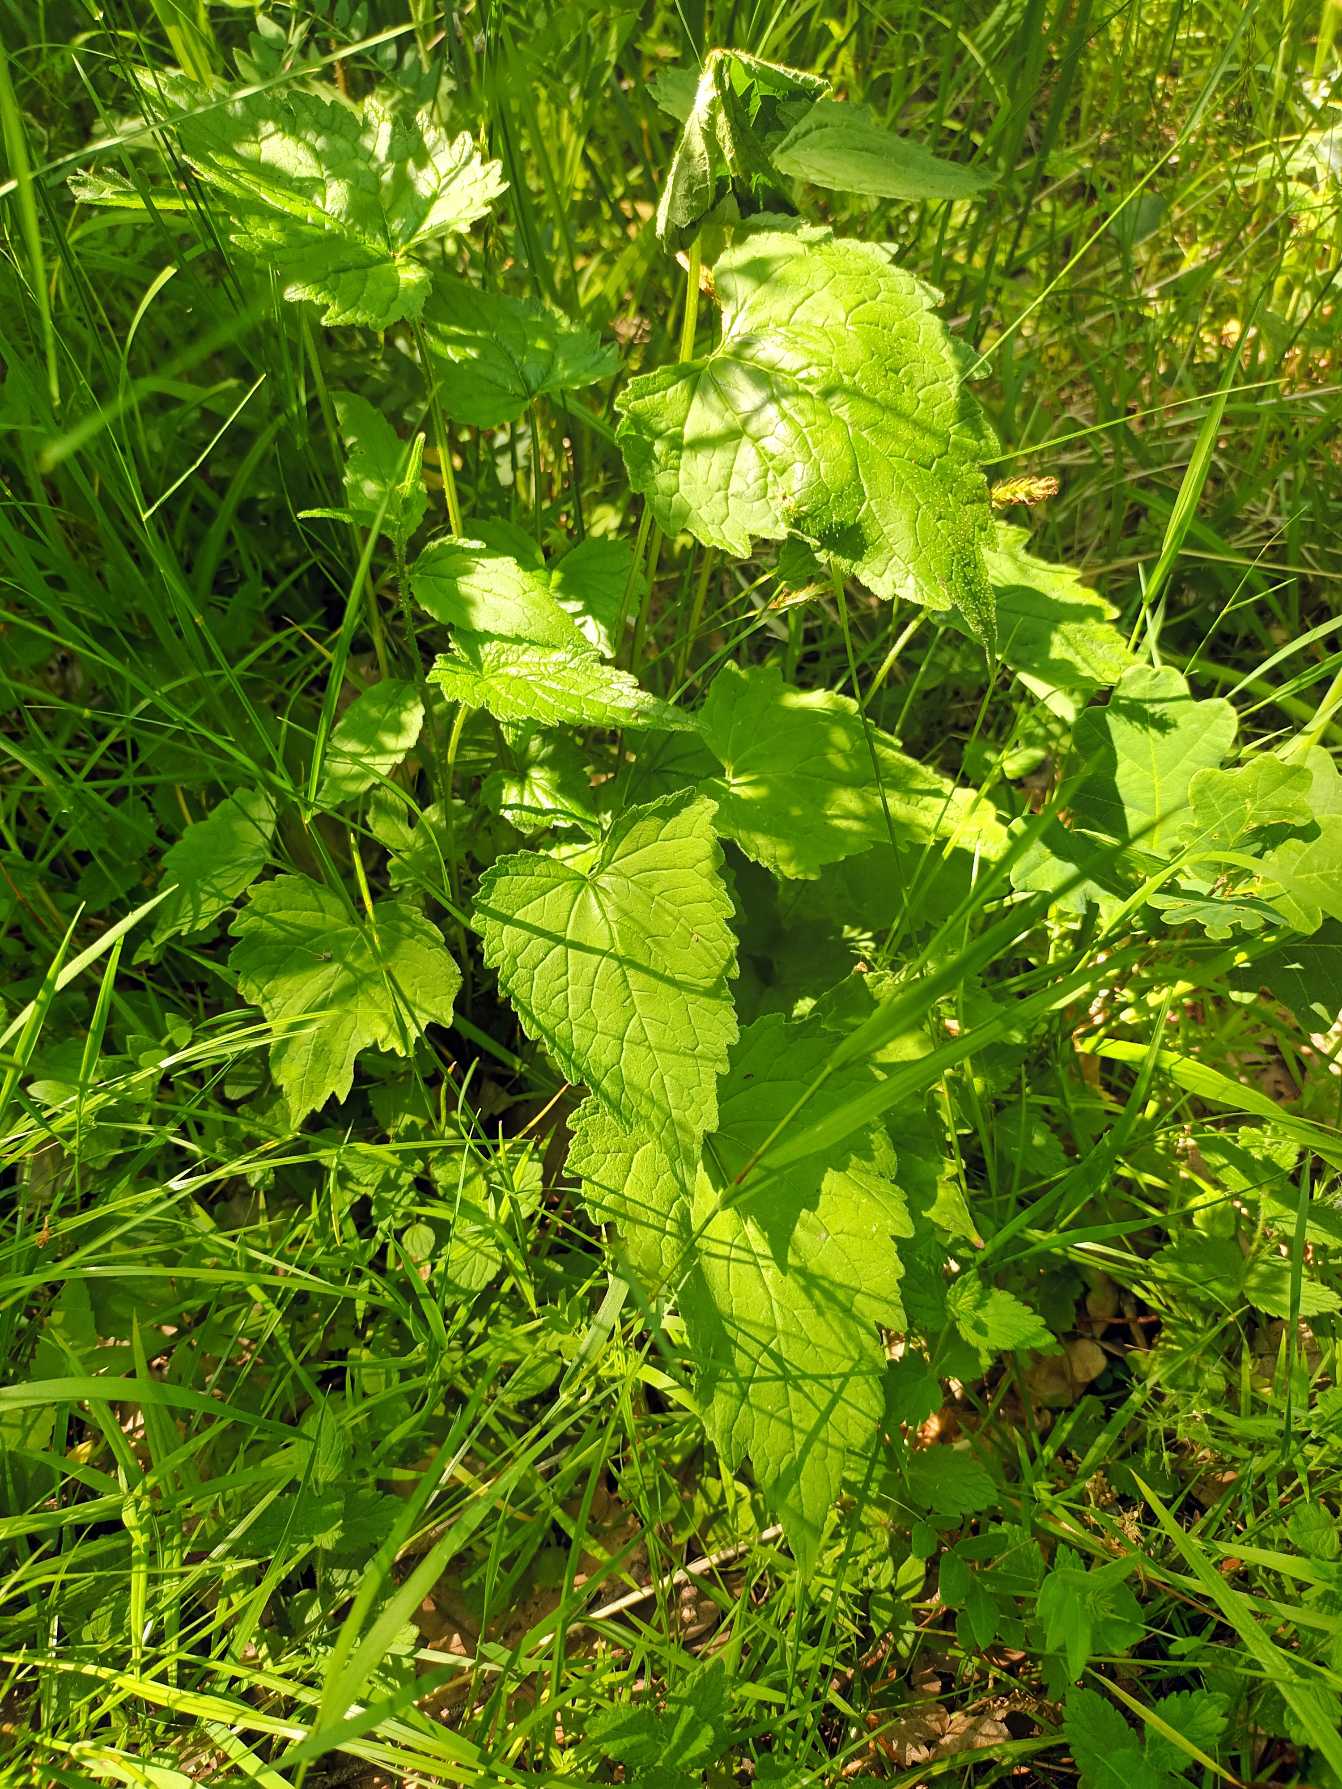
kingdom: Plantae
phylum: Tracheophyta
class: Magnoliopsida
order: Asterales
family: Campanulaceae
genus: Campanula
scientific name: Campanula trachelium
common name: Nælde-klokke
